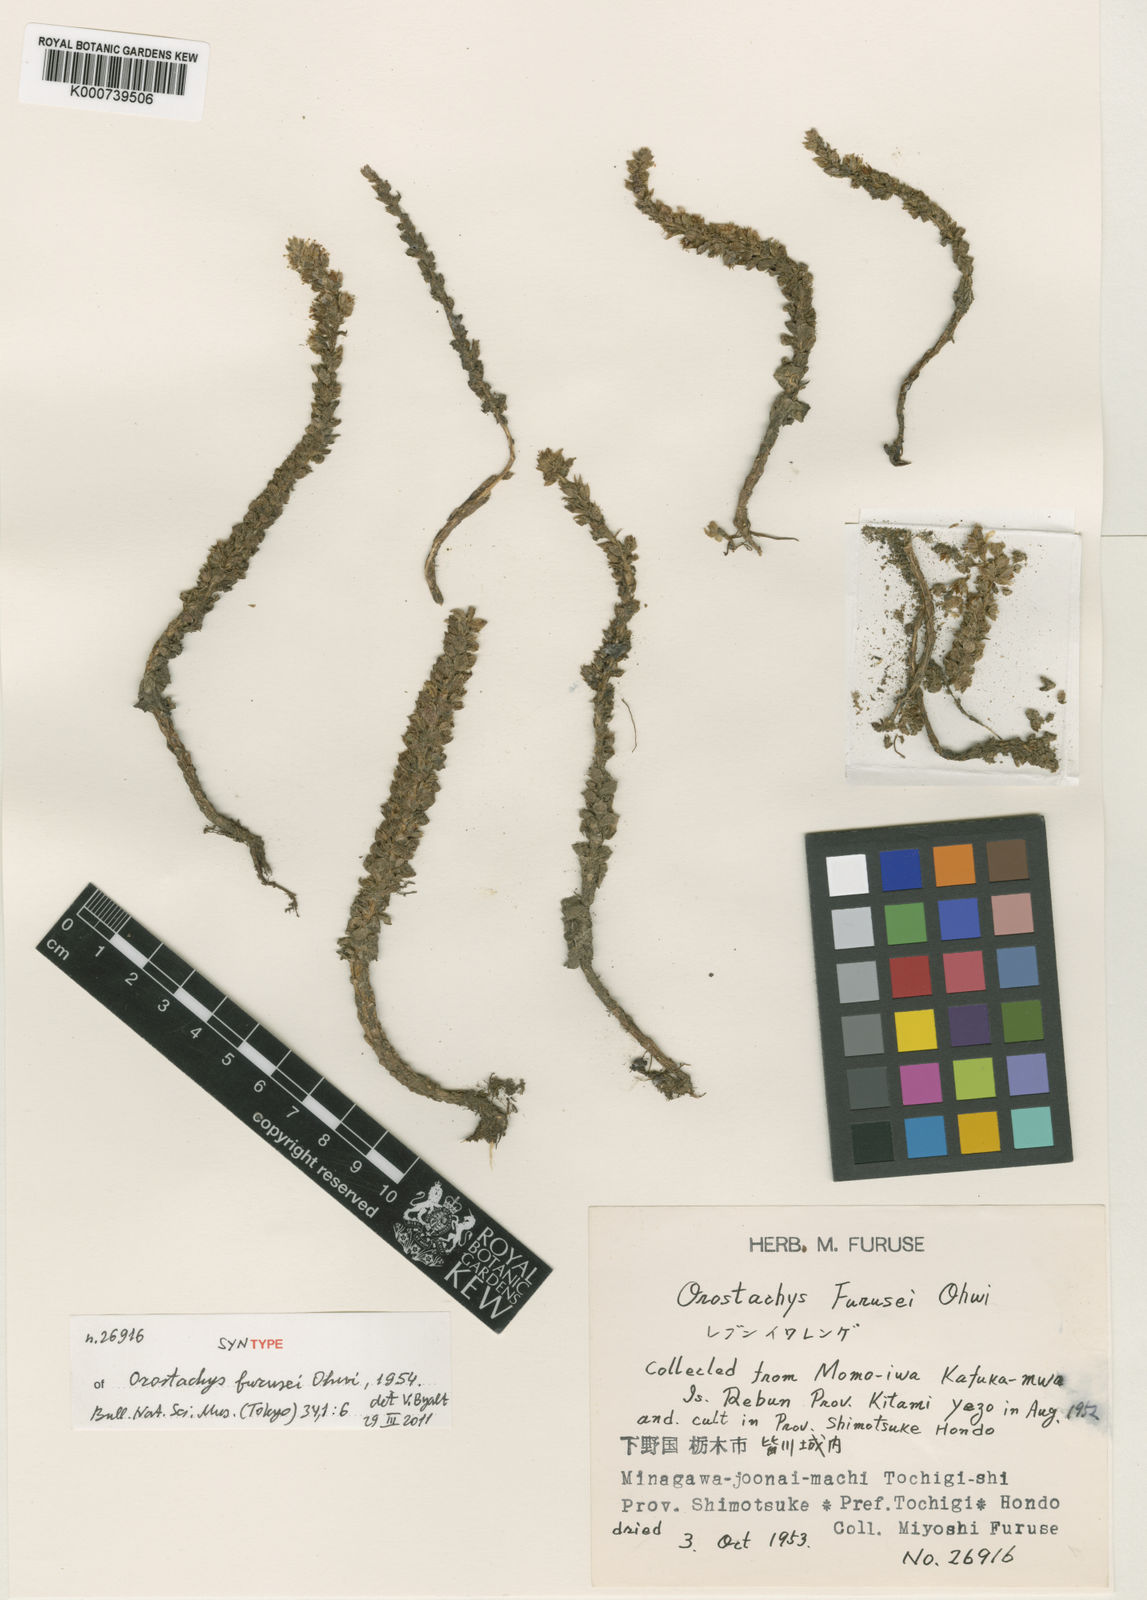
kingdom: Plantae
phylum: Tracheophyta
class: Magnoliopsida
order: Saxifragales
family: Crassulaceae
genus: Orostachys
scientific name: Orostachys boehmeri
